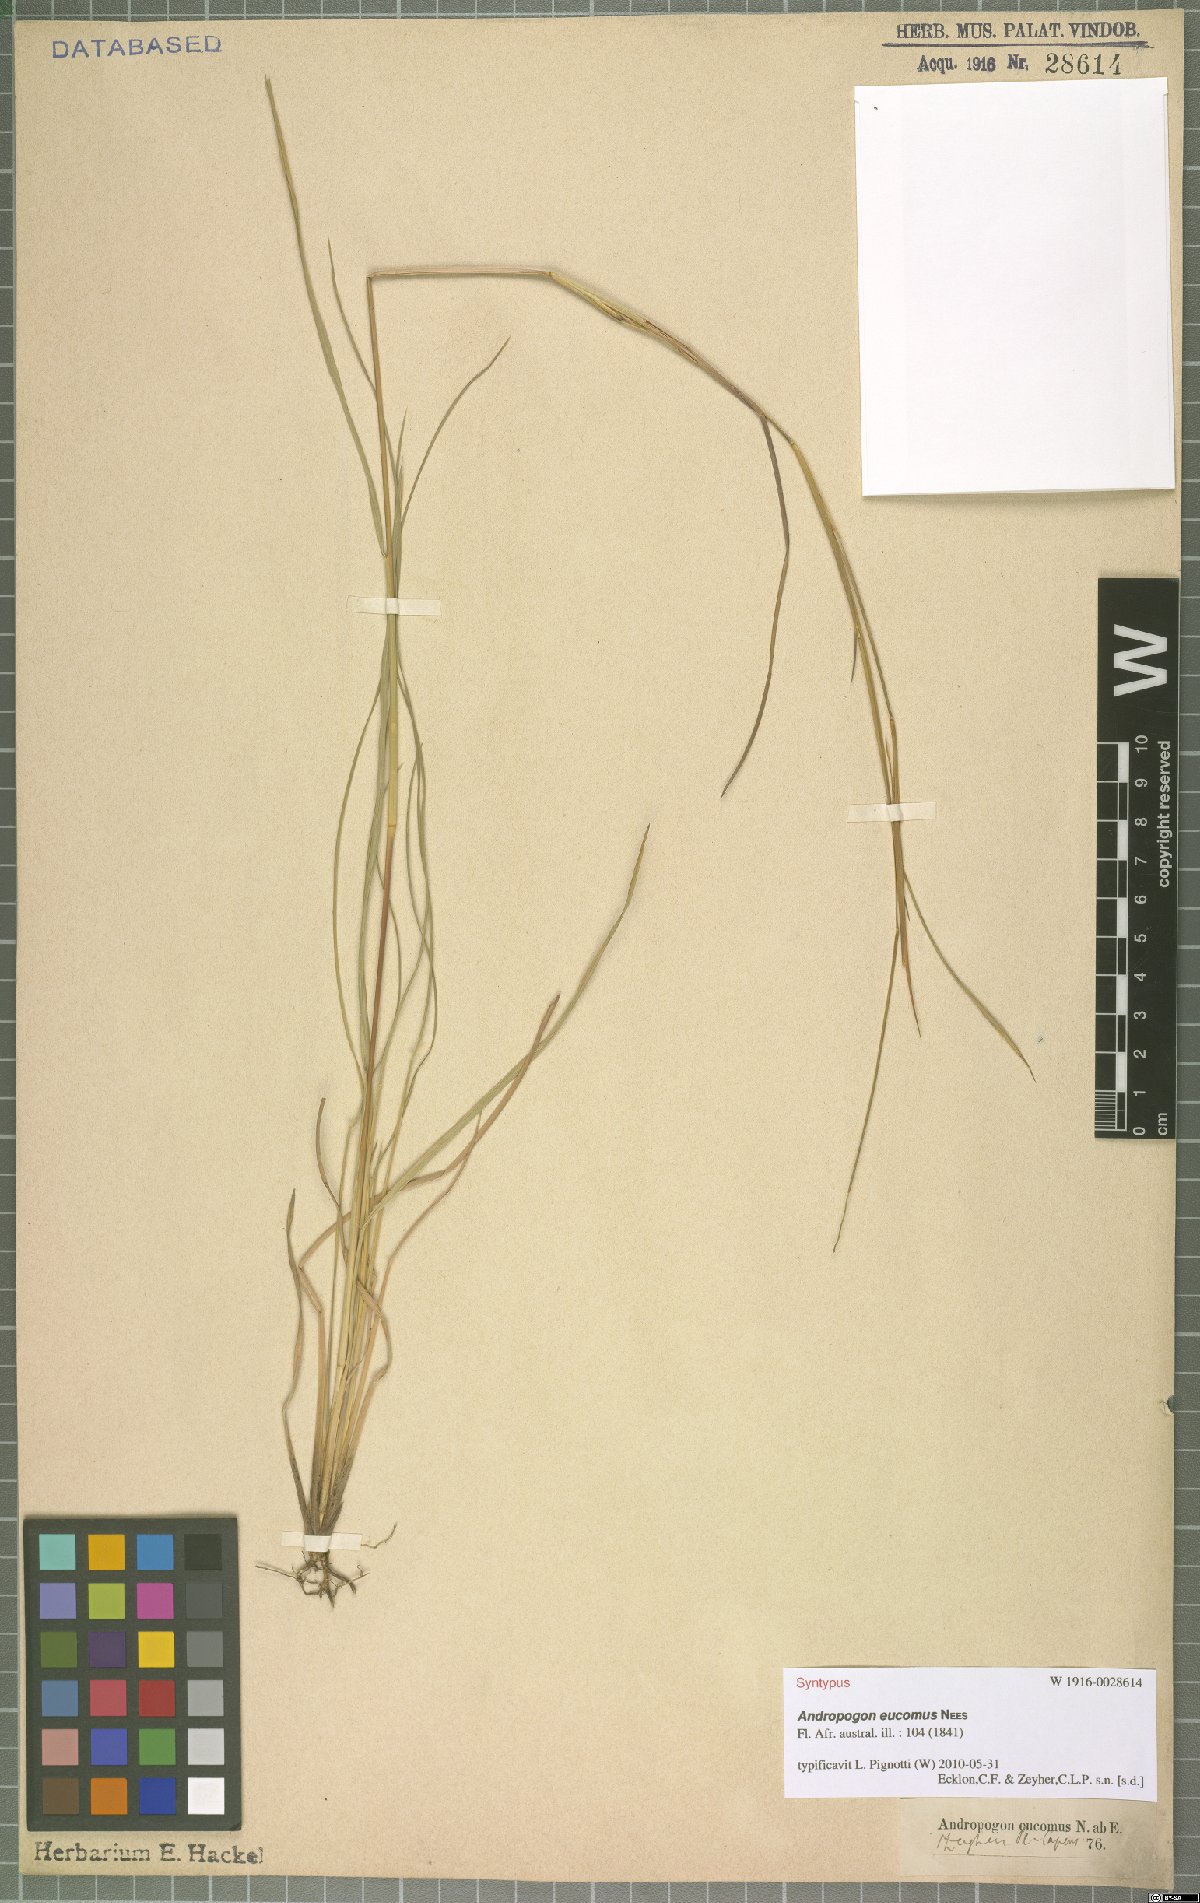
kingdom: Plantae
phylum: Tracheophyta
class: Liliopsida
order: Poales
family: Poaceae
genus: Andropogon
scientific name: Andropogon eucomus
